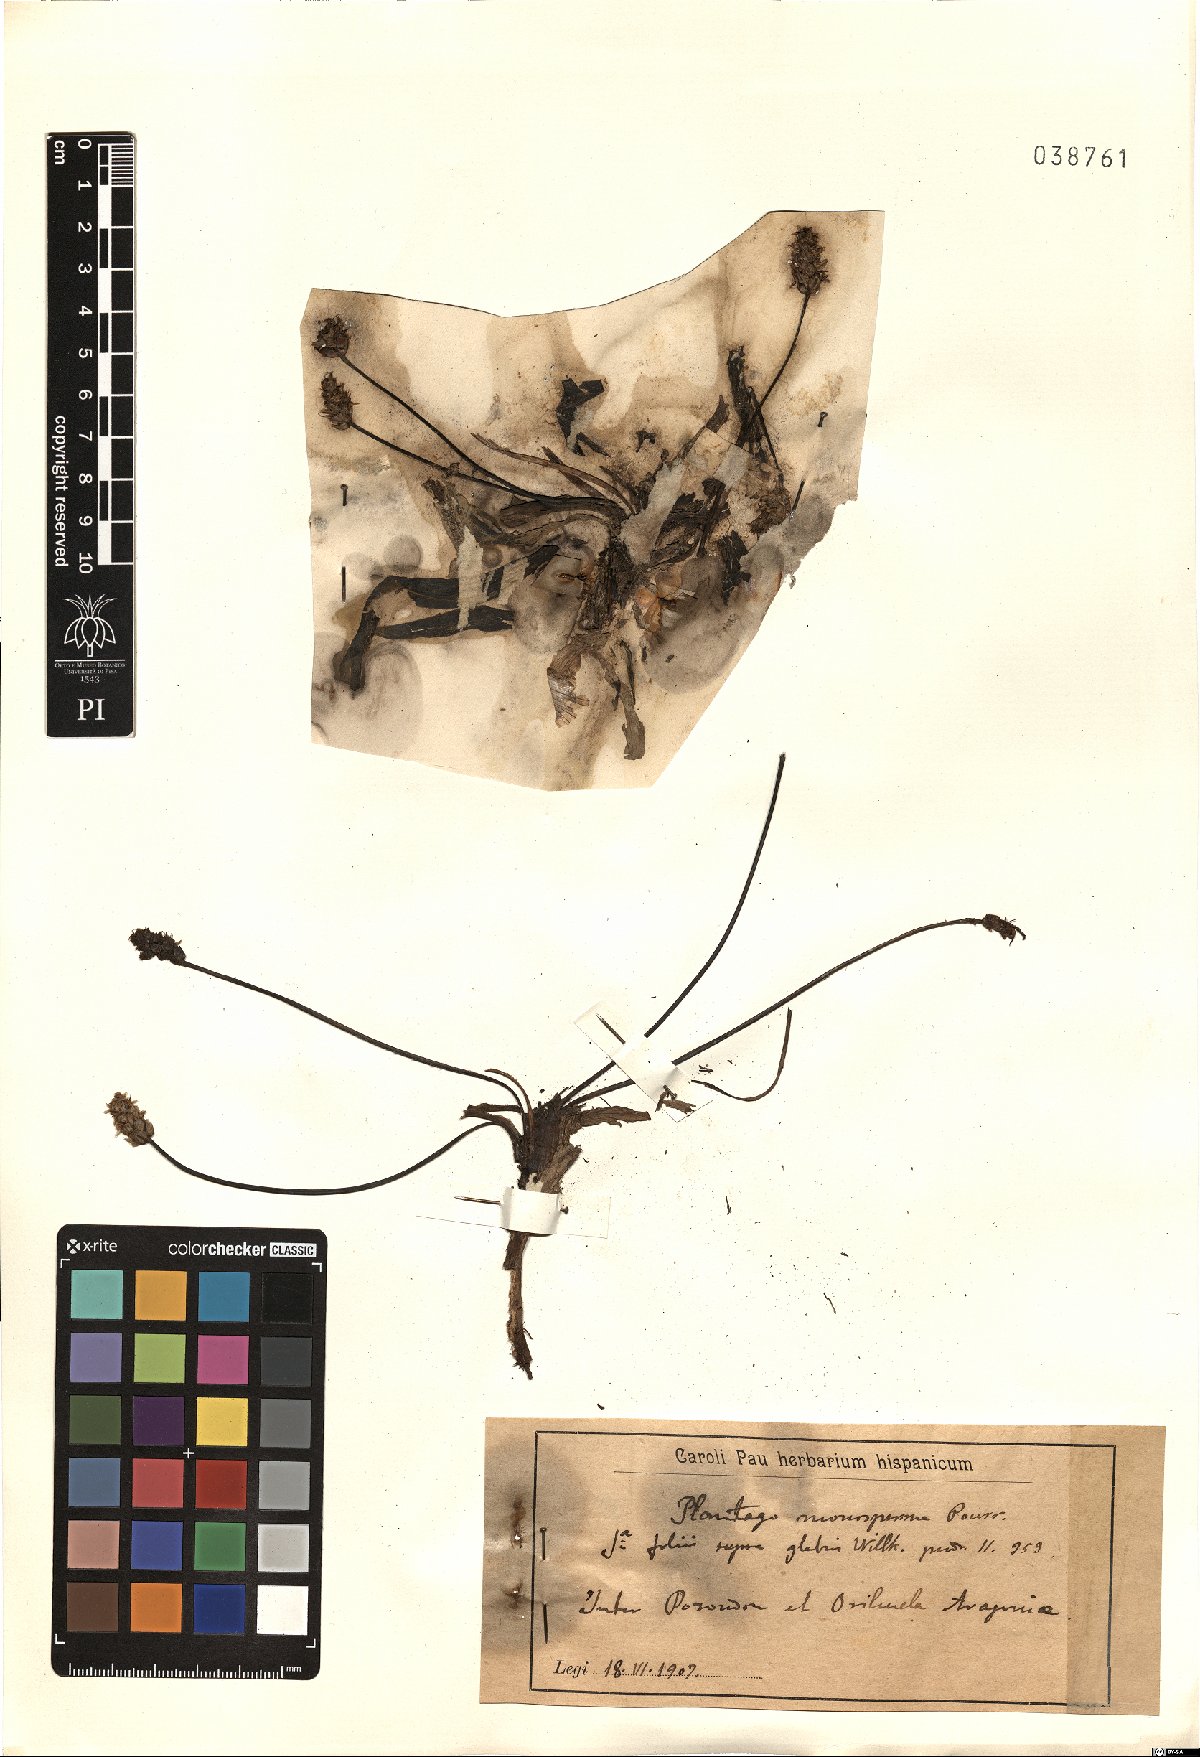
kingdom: Plantae
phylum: Tracheophyta
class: Magnoliopsida
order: Lamiales
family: Plantaginaceae
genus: Plantago
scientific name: Plantago monosperma
